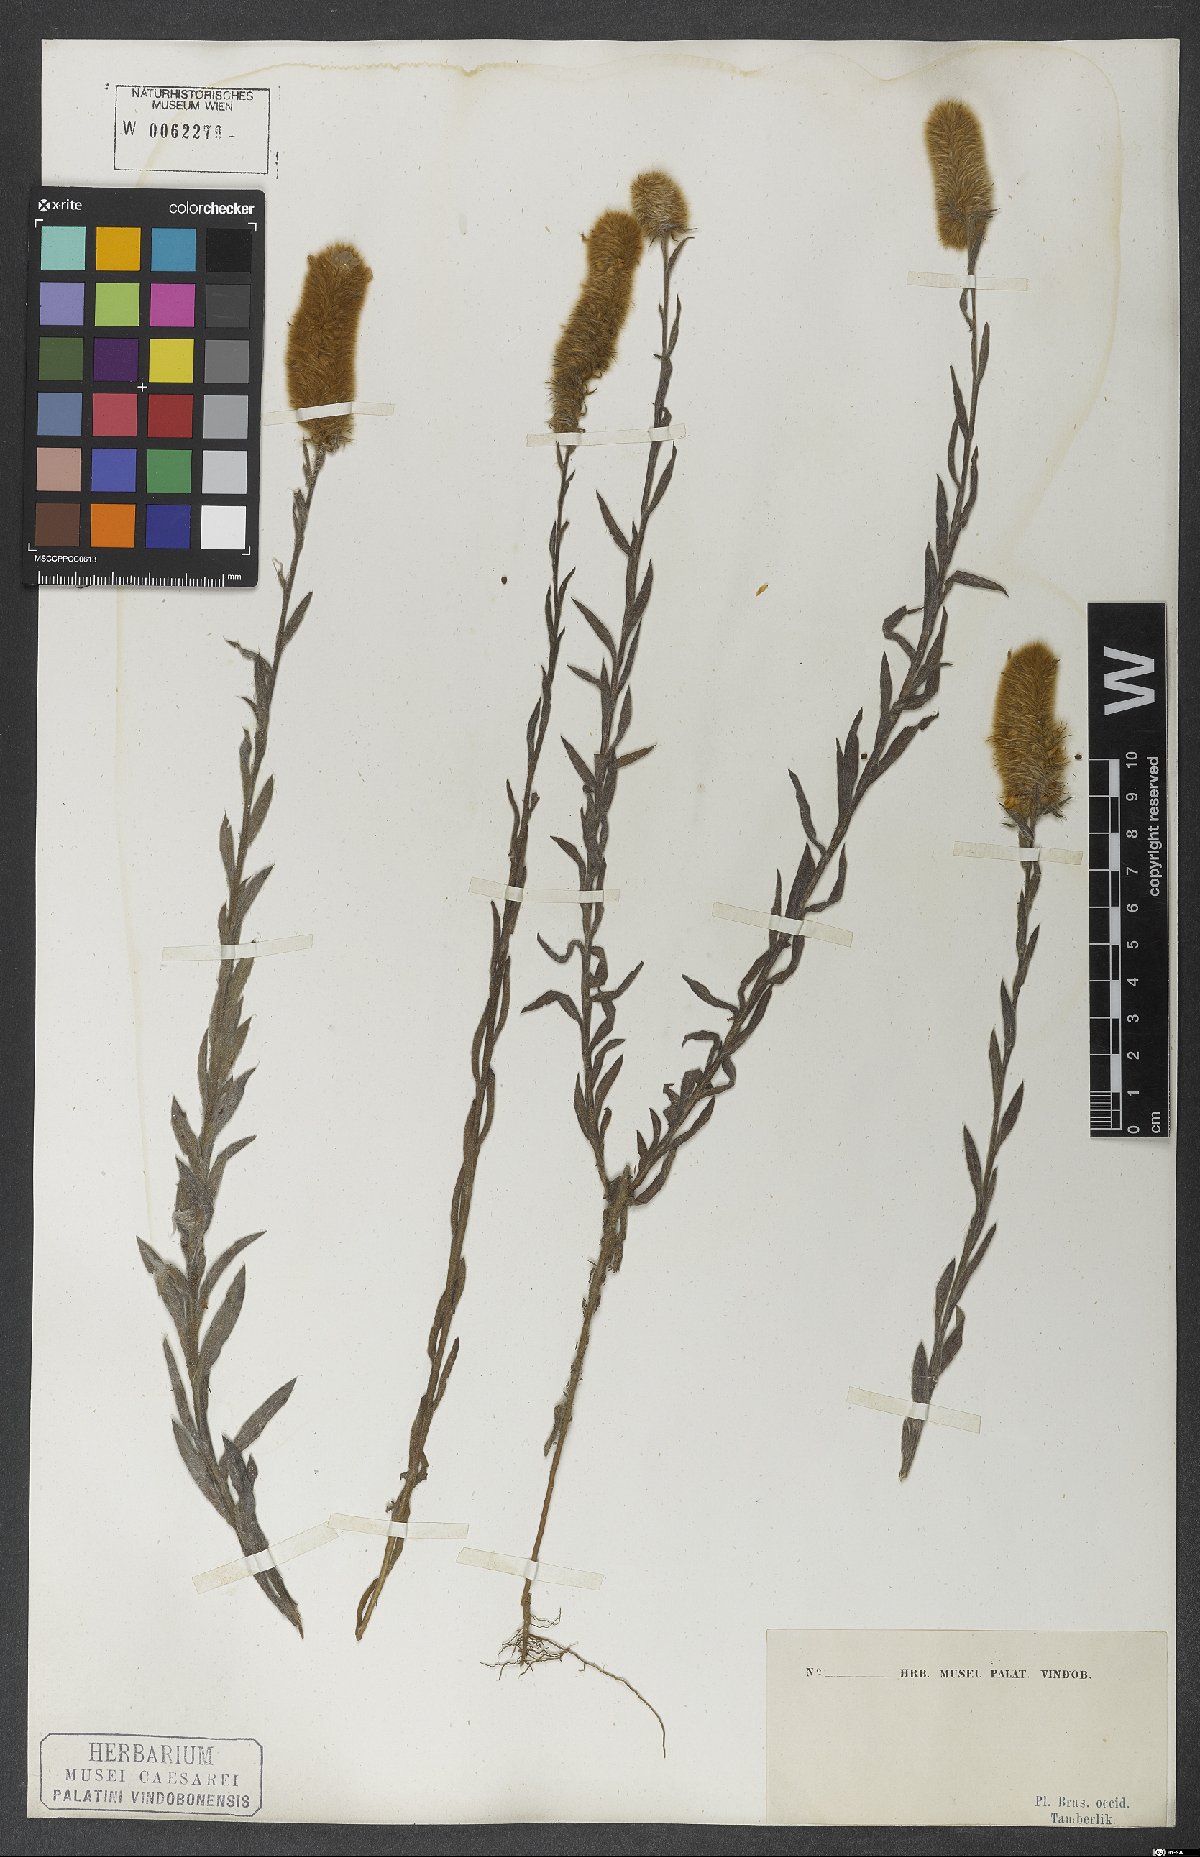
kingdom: Plantae
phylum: Tracheophyta
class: Magnoliopsida
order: Solanales
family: Convolvulaceae
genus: Evolvulus
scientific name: Evolvulus pterocaulon
